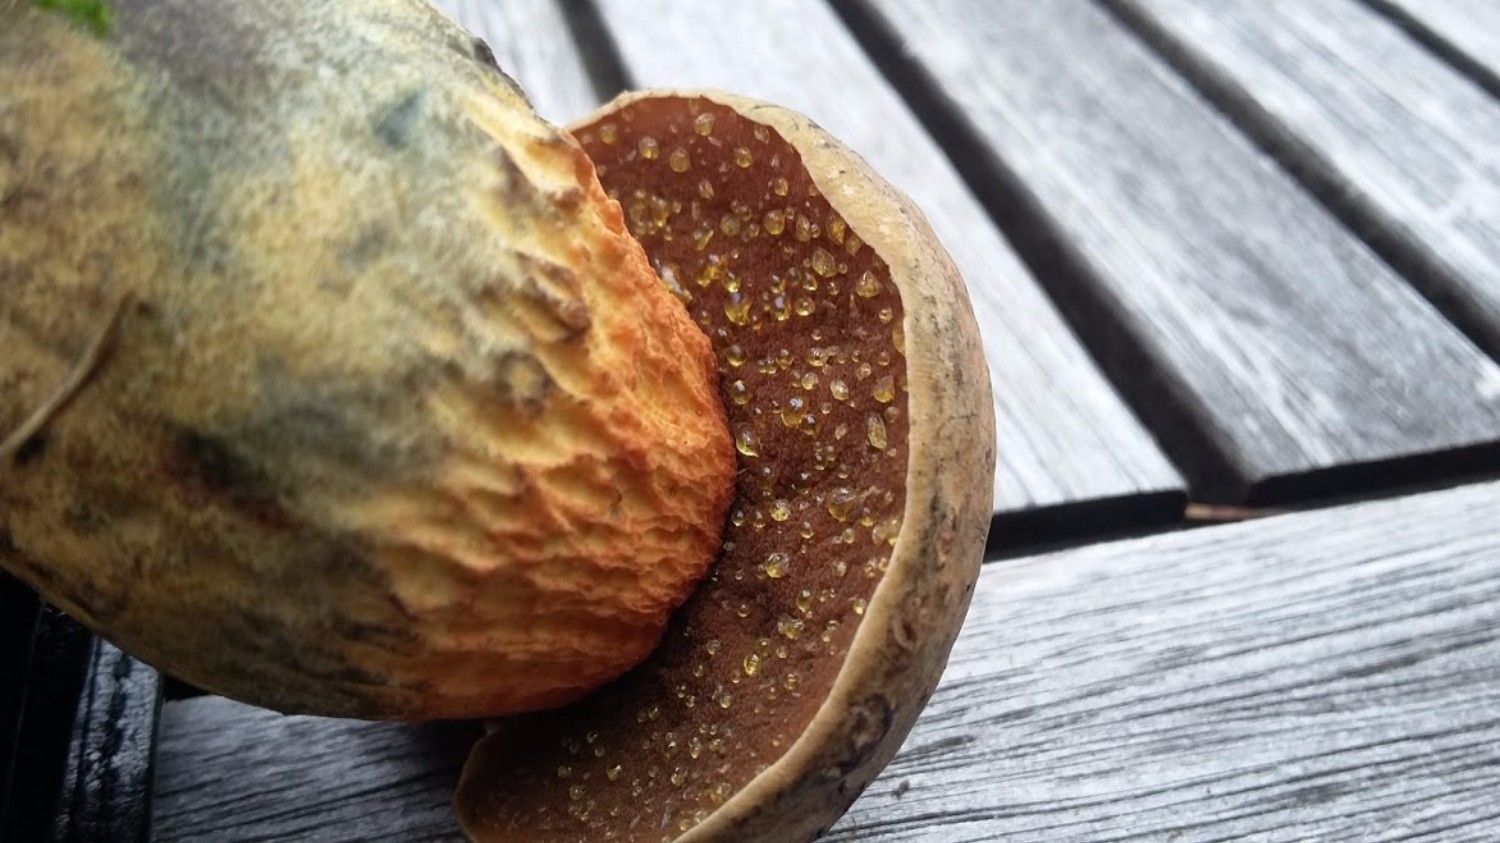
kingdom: Fungi
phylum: Basidiomycota
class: Agaricomycetes
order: Boletales
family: Boletaceae
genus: Suillellus
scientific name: Suillellus luridus
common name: netstokket indigorørhat
